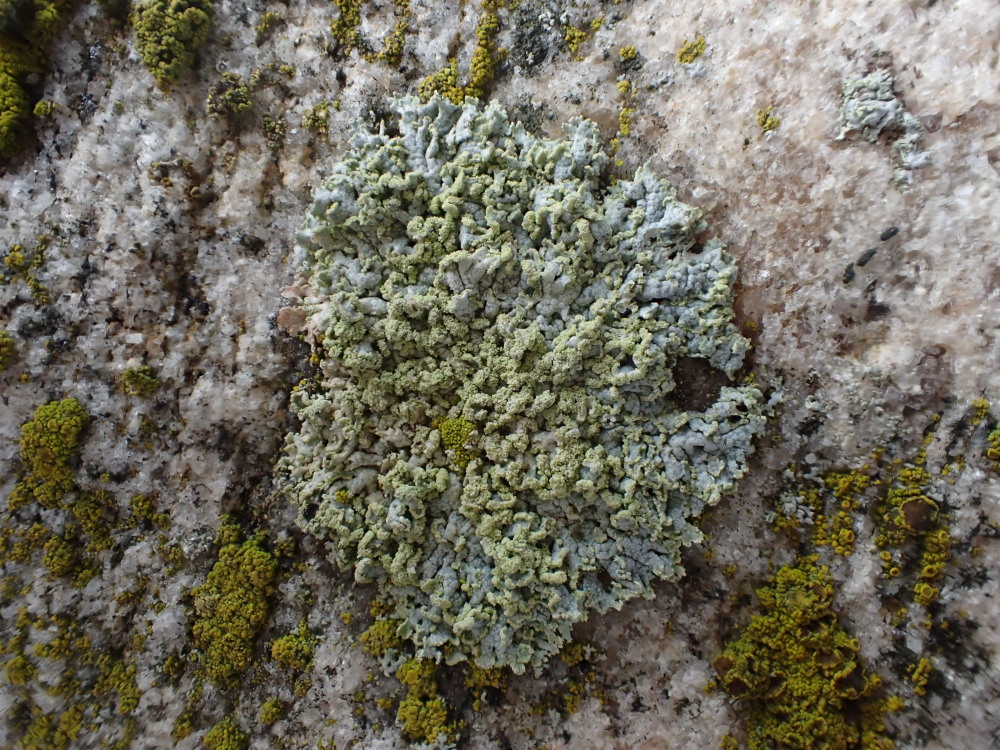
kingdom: Fungi
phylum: Ascomycota
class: Lecanoromycetes
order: Caliciales
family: Physciaceae
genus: Physcia
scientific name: Physcia dubia
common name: fuglestens-rosetlav
